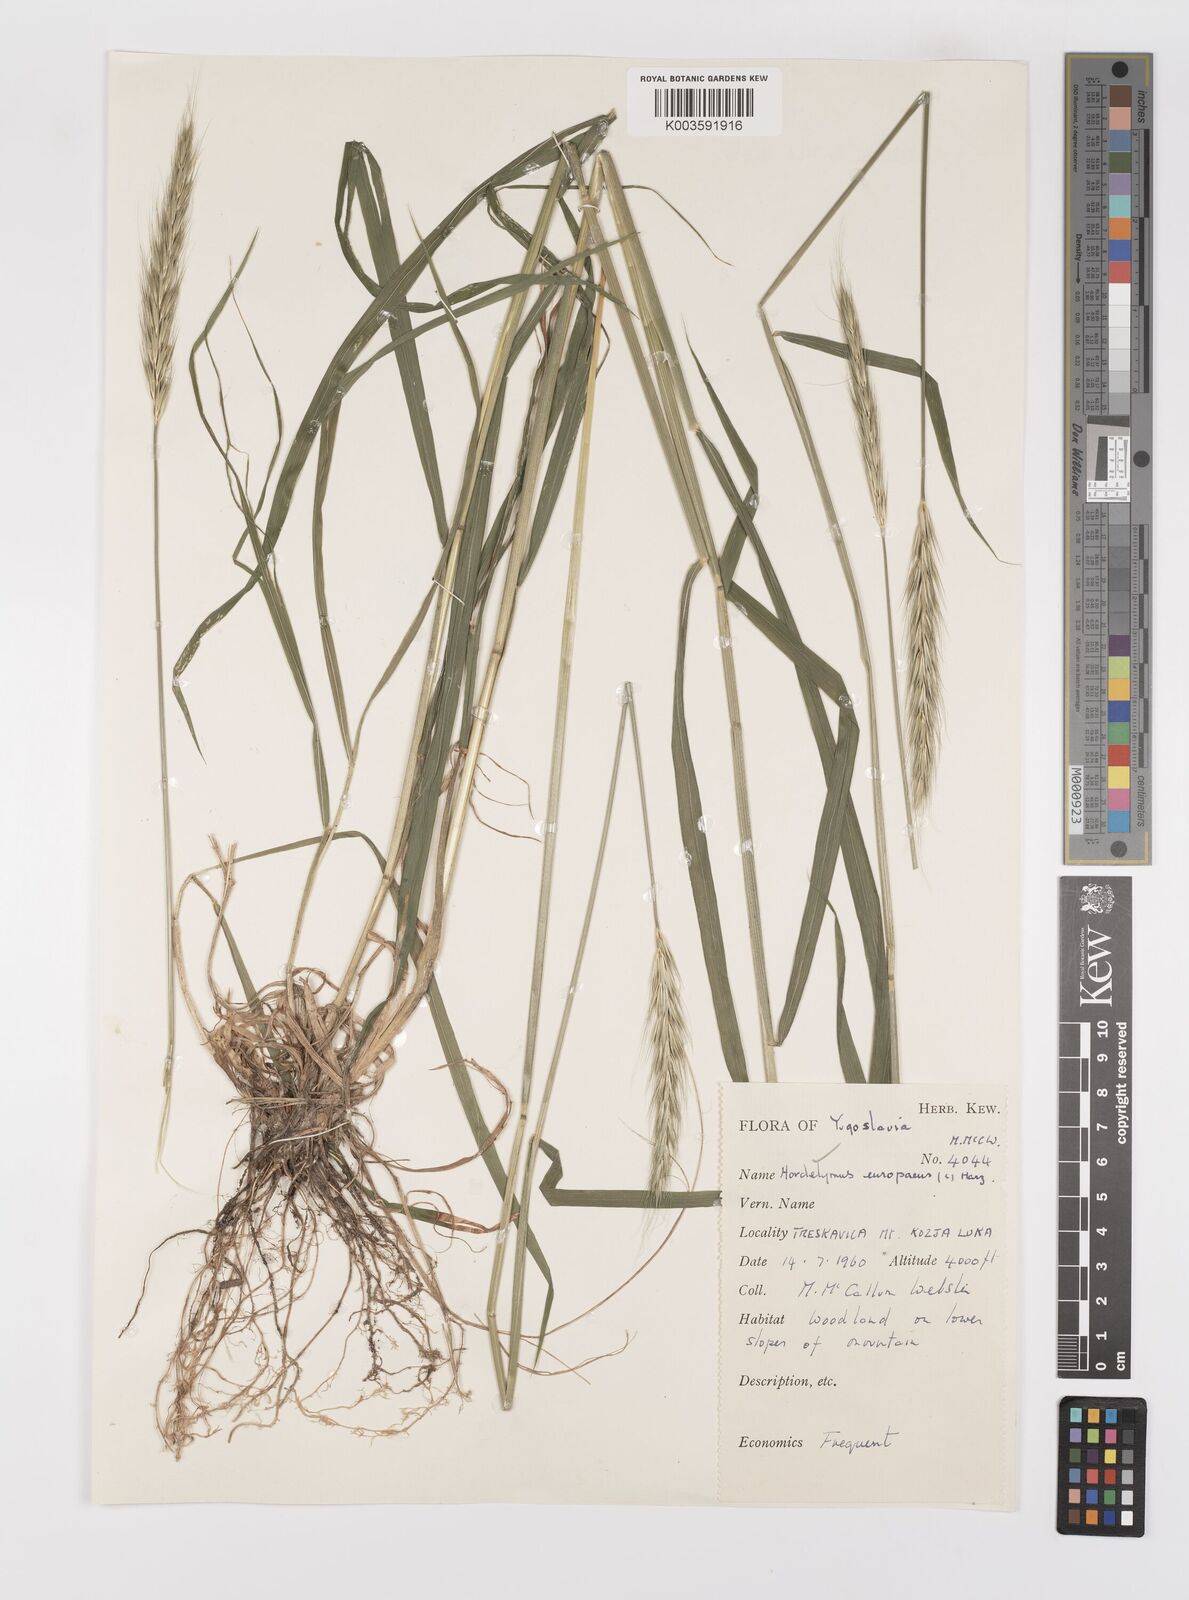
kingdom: Plantae
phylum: Tracheophyta
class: Liliopsida
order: Poales
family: Poaceae
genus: Hordelymus
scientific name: Hordelymus europaeus
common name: Wood-barley
